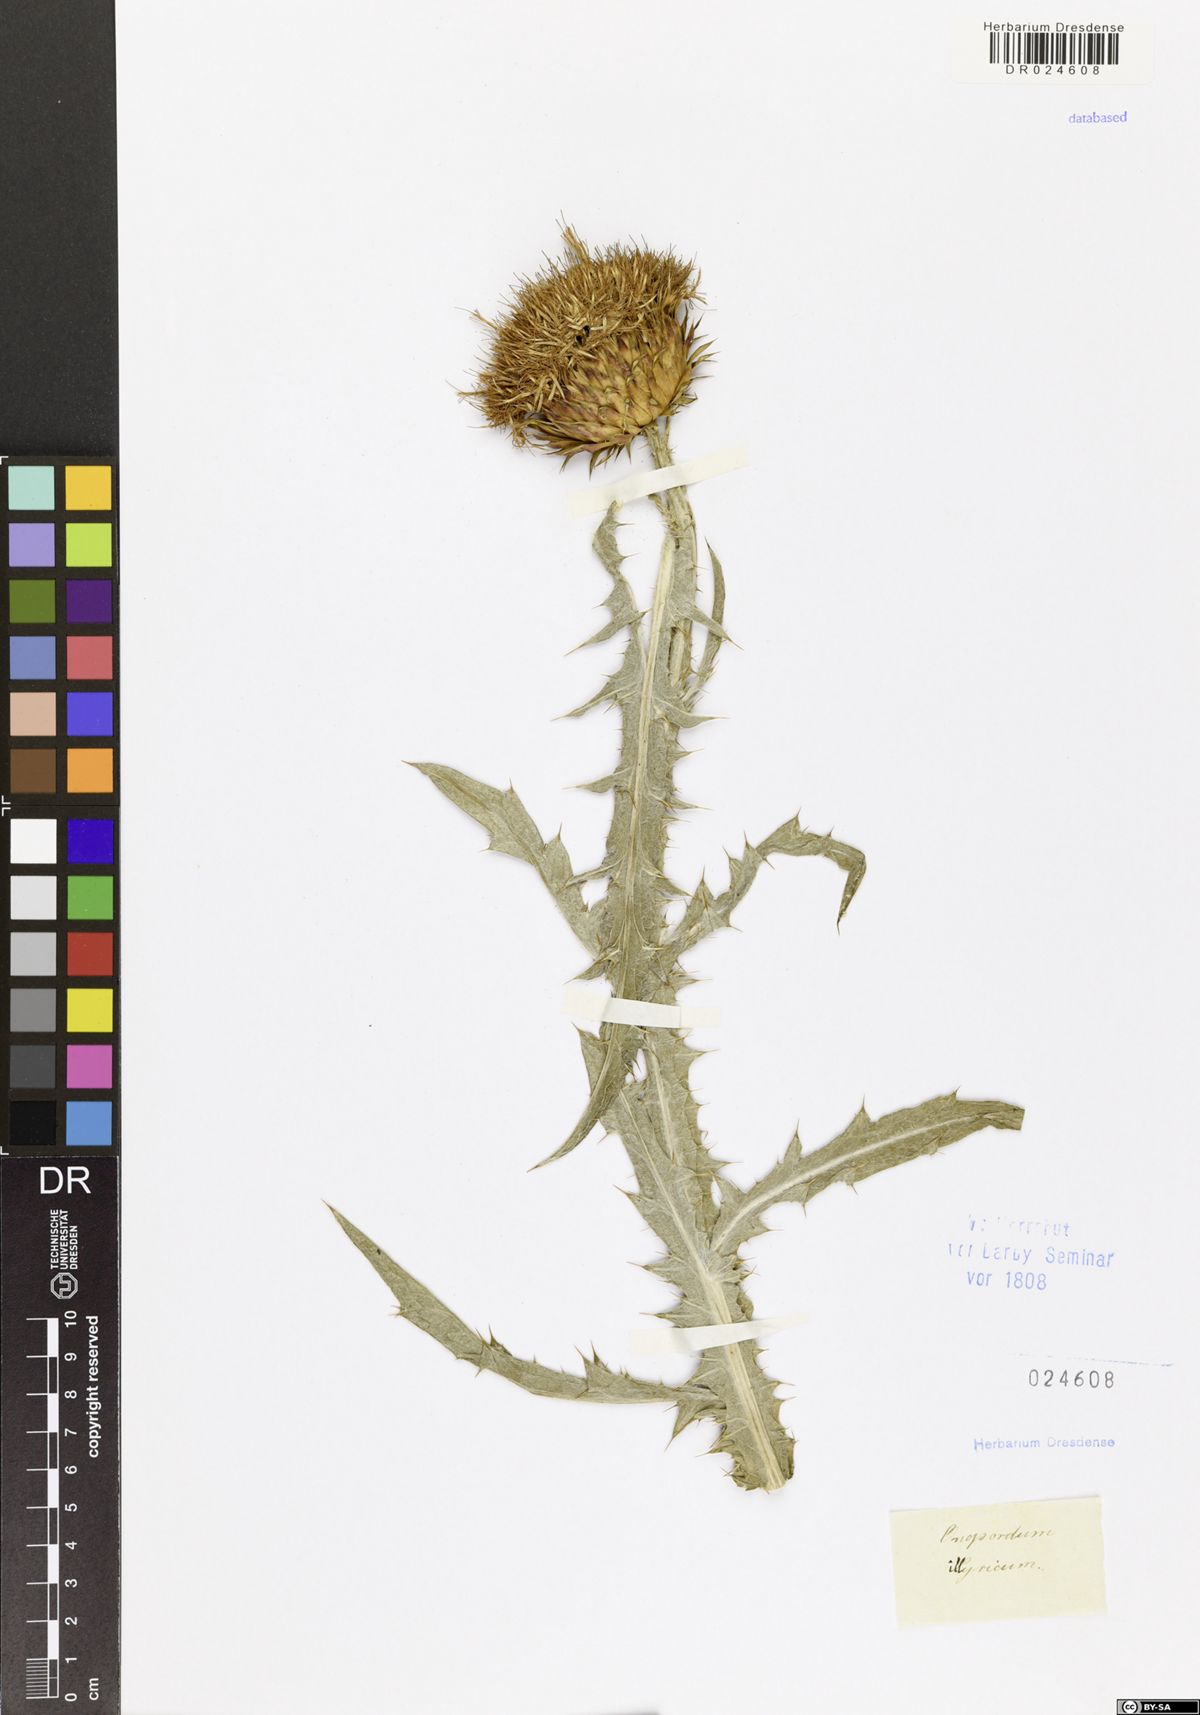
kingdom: Plantae
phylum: Tracheophyta
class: Magnoliopsida
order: Asterales
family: Asteraceae
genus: Onopordum
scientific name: Onopordum illyricum
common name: Illyrian thistle
